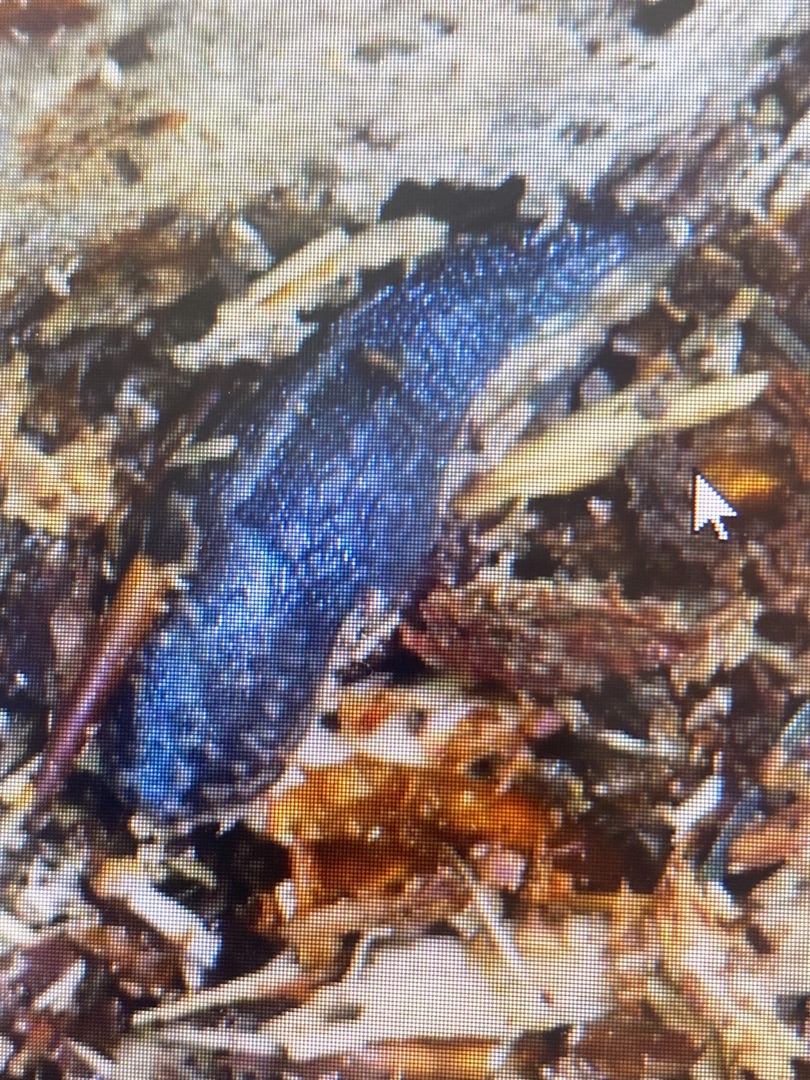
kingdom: Animalia
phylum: Mollusca
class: Gastropoda
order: Stylommatophora
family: Limacidae
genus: Limax
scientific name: Limax maximus
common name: Pantersnegl
